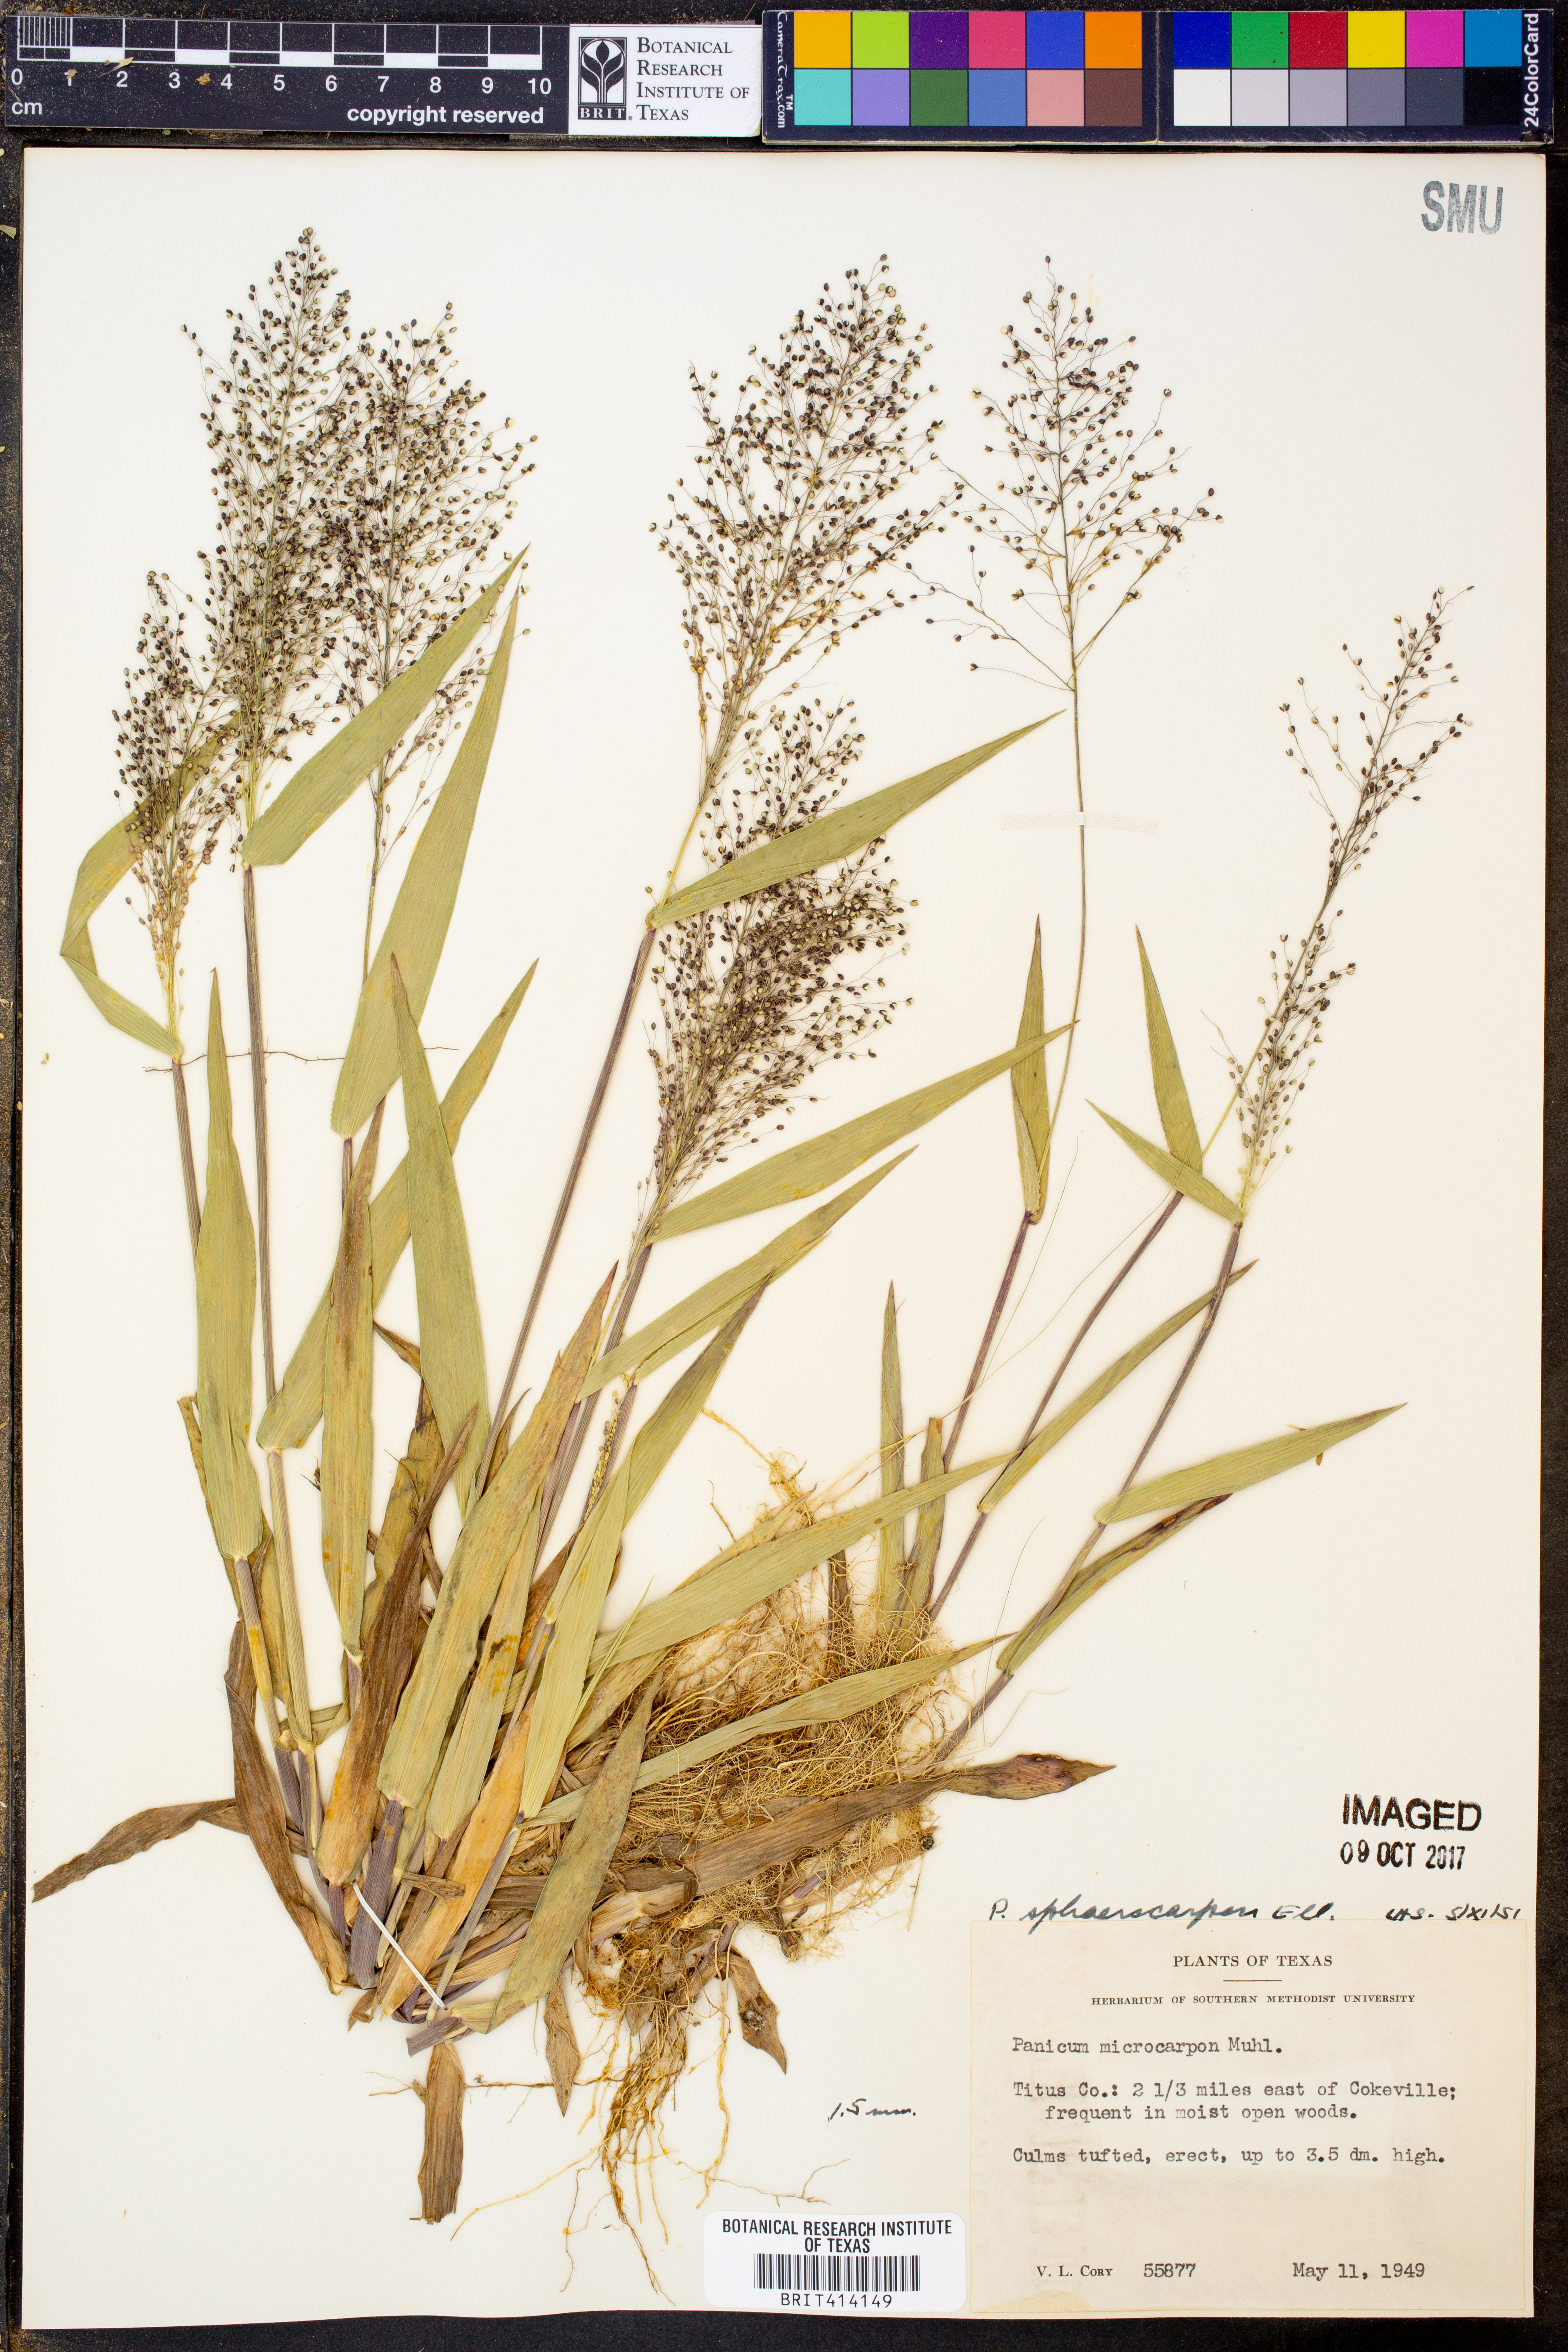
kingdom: Plantae
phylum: Tracheophyta
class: Liliopsida
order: Poales
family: Poaceae
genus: Dichanthelium
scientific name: Dichanthelium sphaerocarpon
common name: Round-fruited panicgrass
